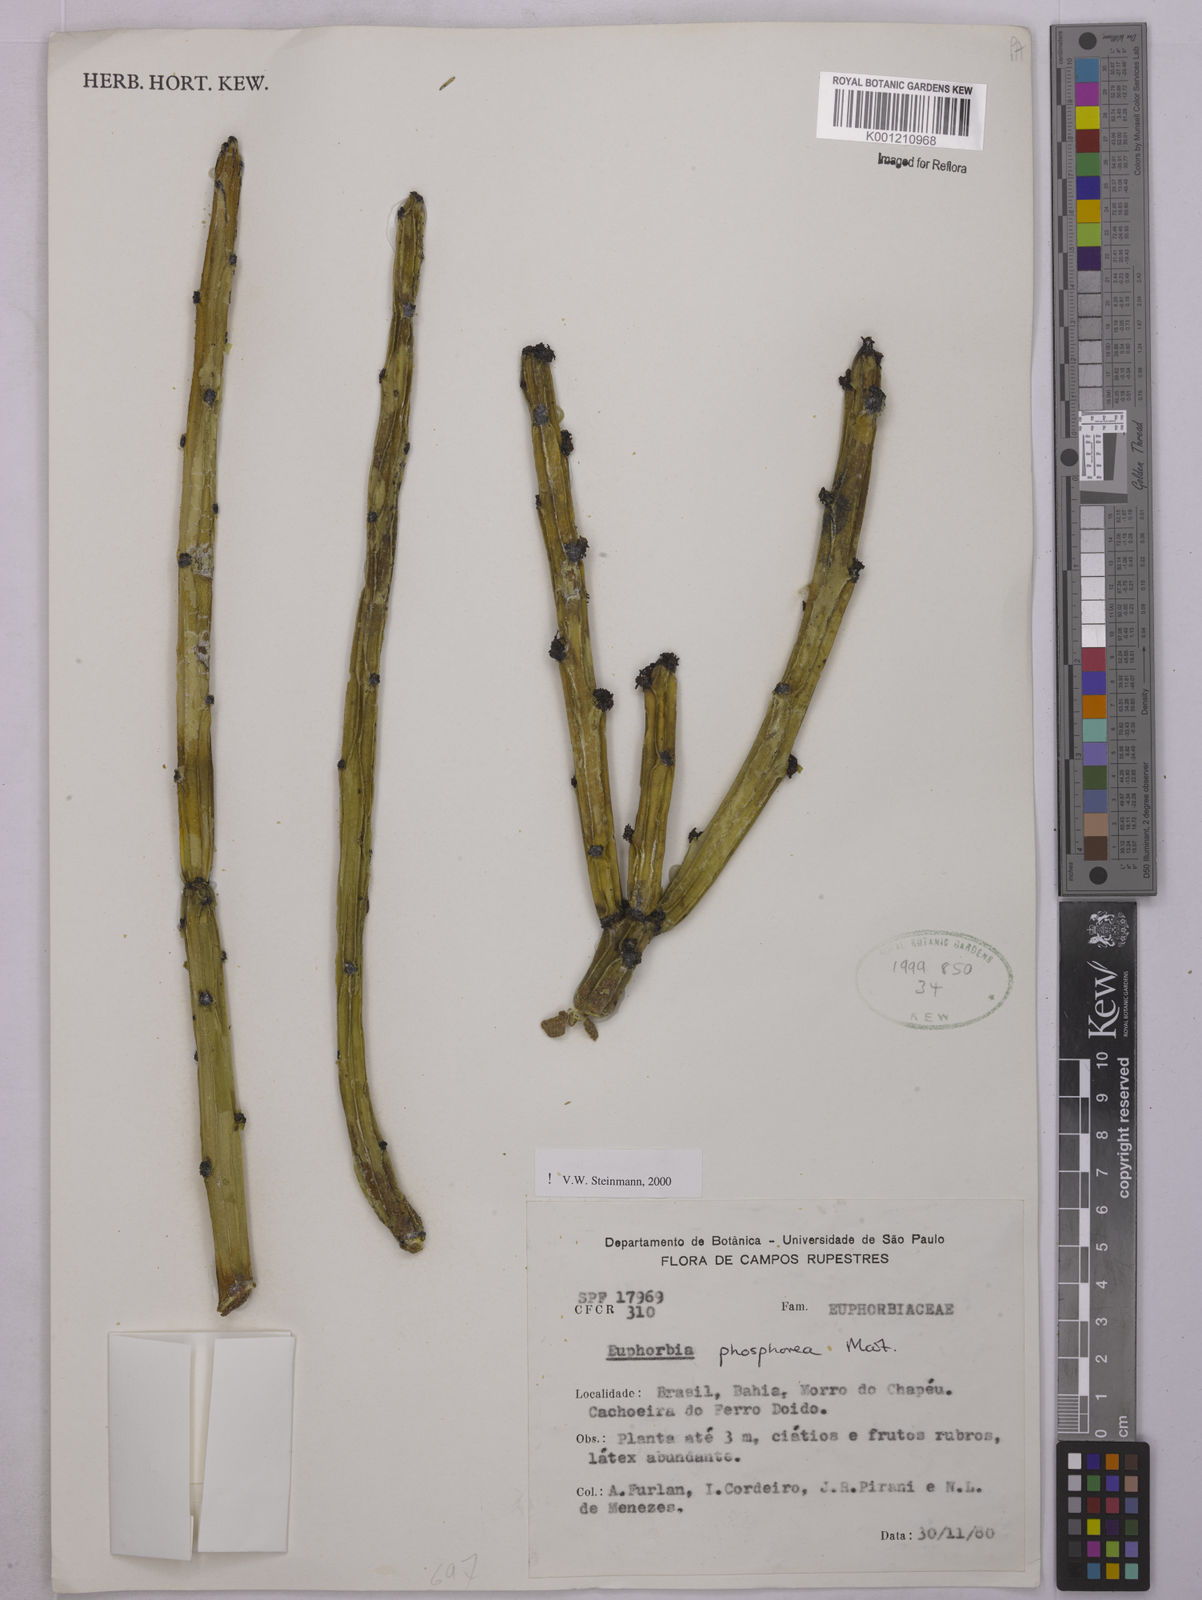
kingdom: Plantae
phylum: Tracheophyta
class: Magnoliopsida
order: Malpighiales
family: Euphorbiaceae
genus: Euphorbia
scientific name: Euphorbia phosphorea
